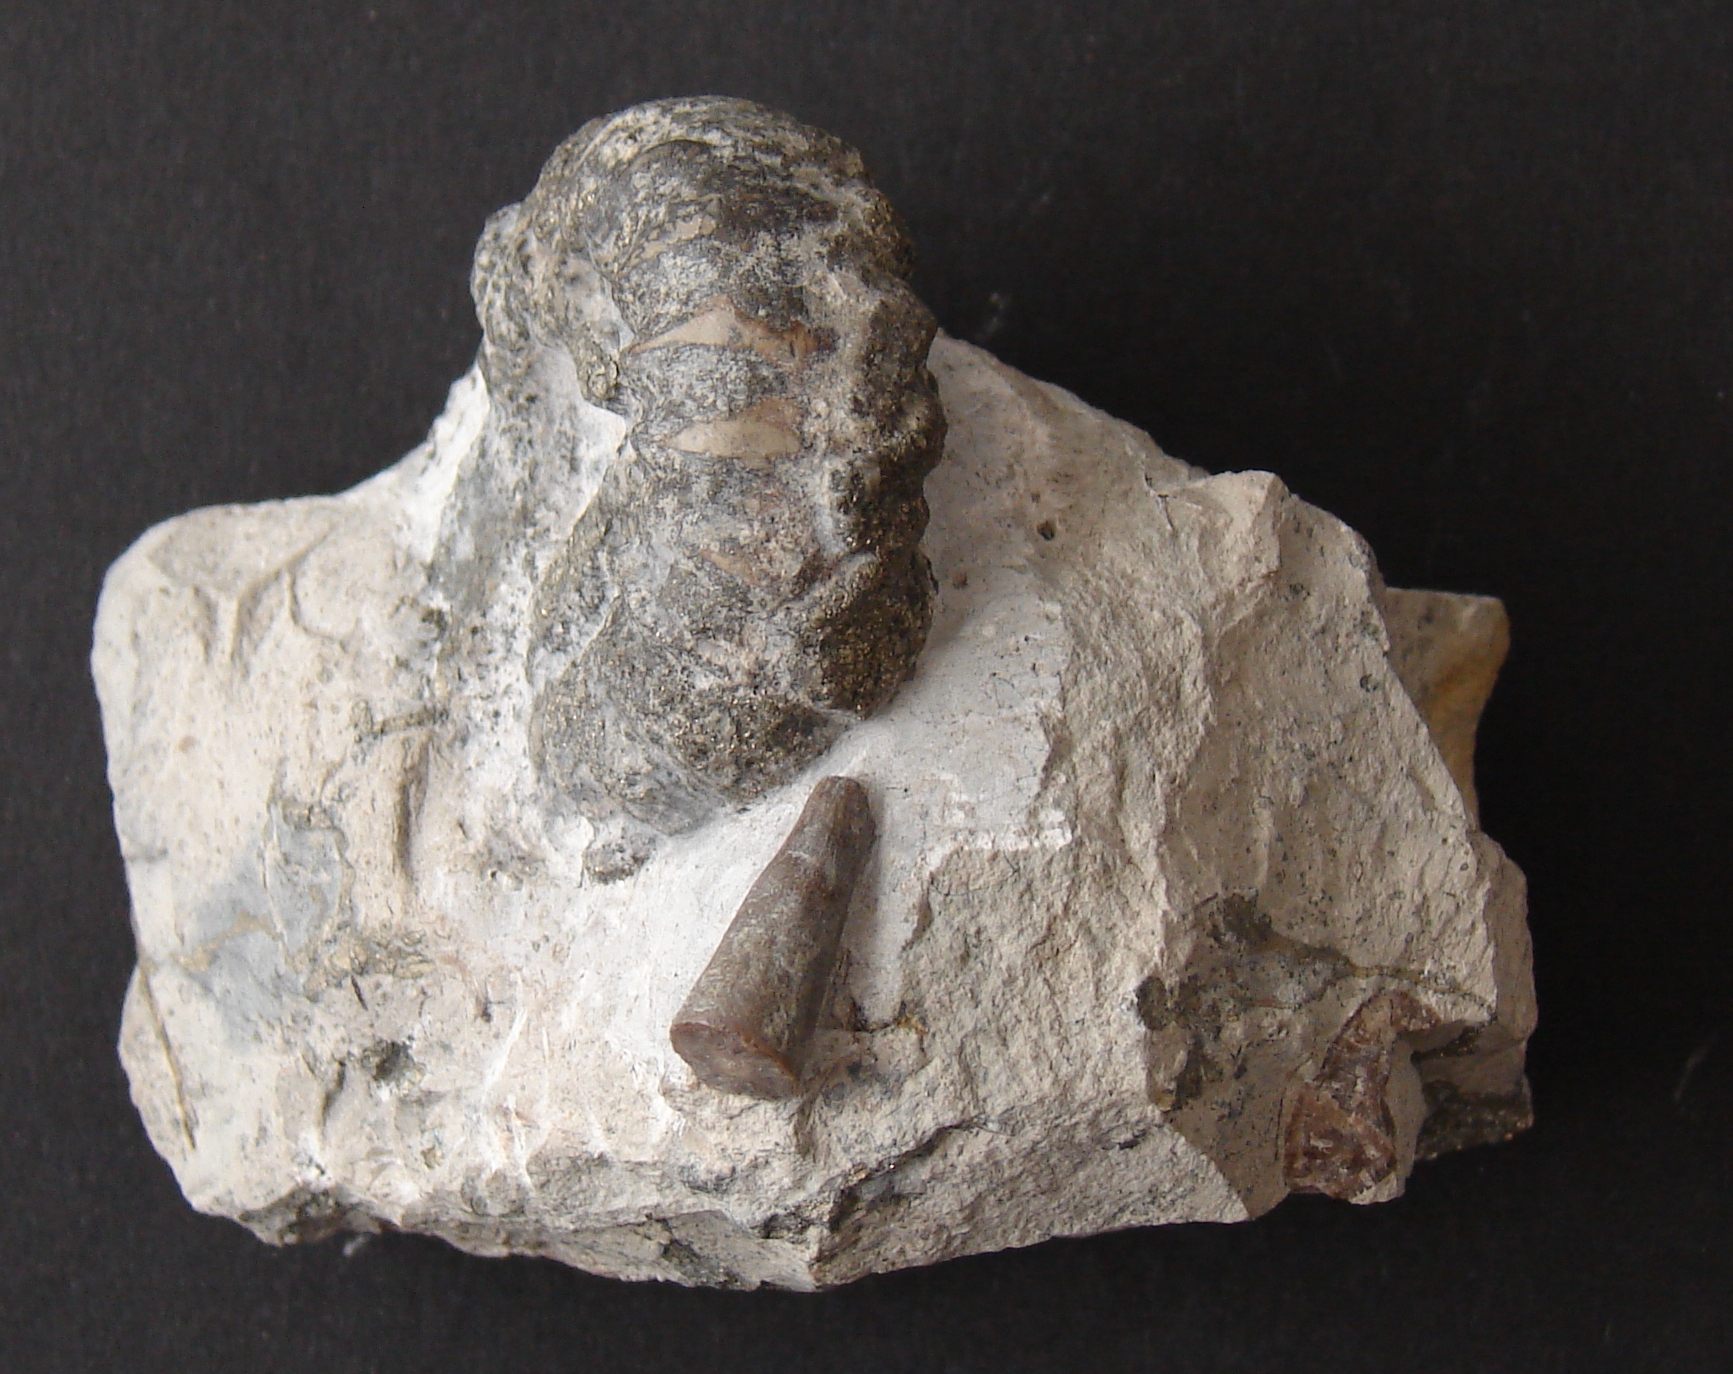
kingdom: Animalia
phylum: Mollusca
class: Cephalopoda
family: Liparoceratidae
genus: Aegoceras
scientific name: Aegoceras crassum
